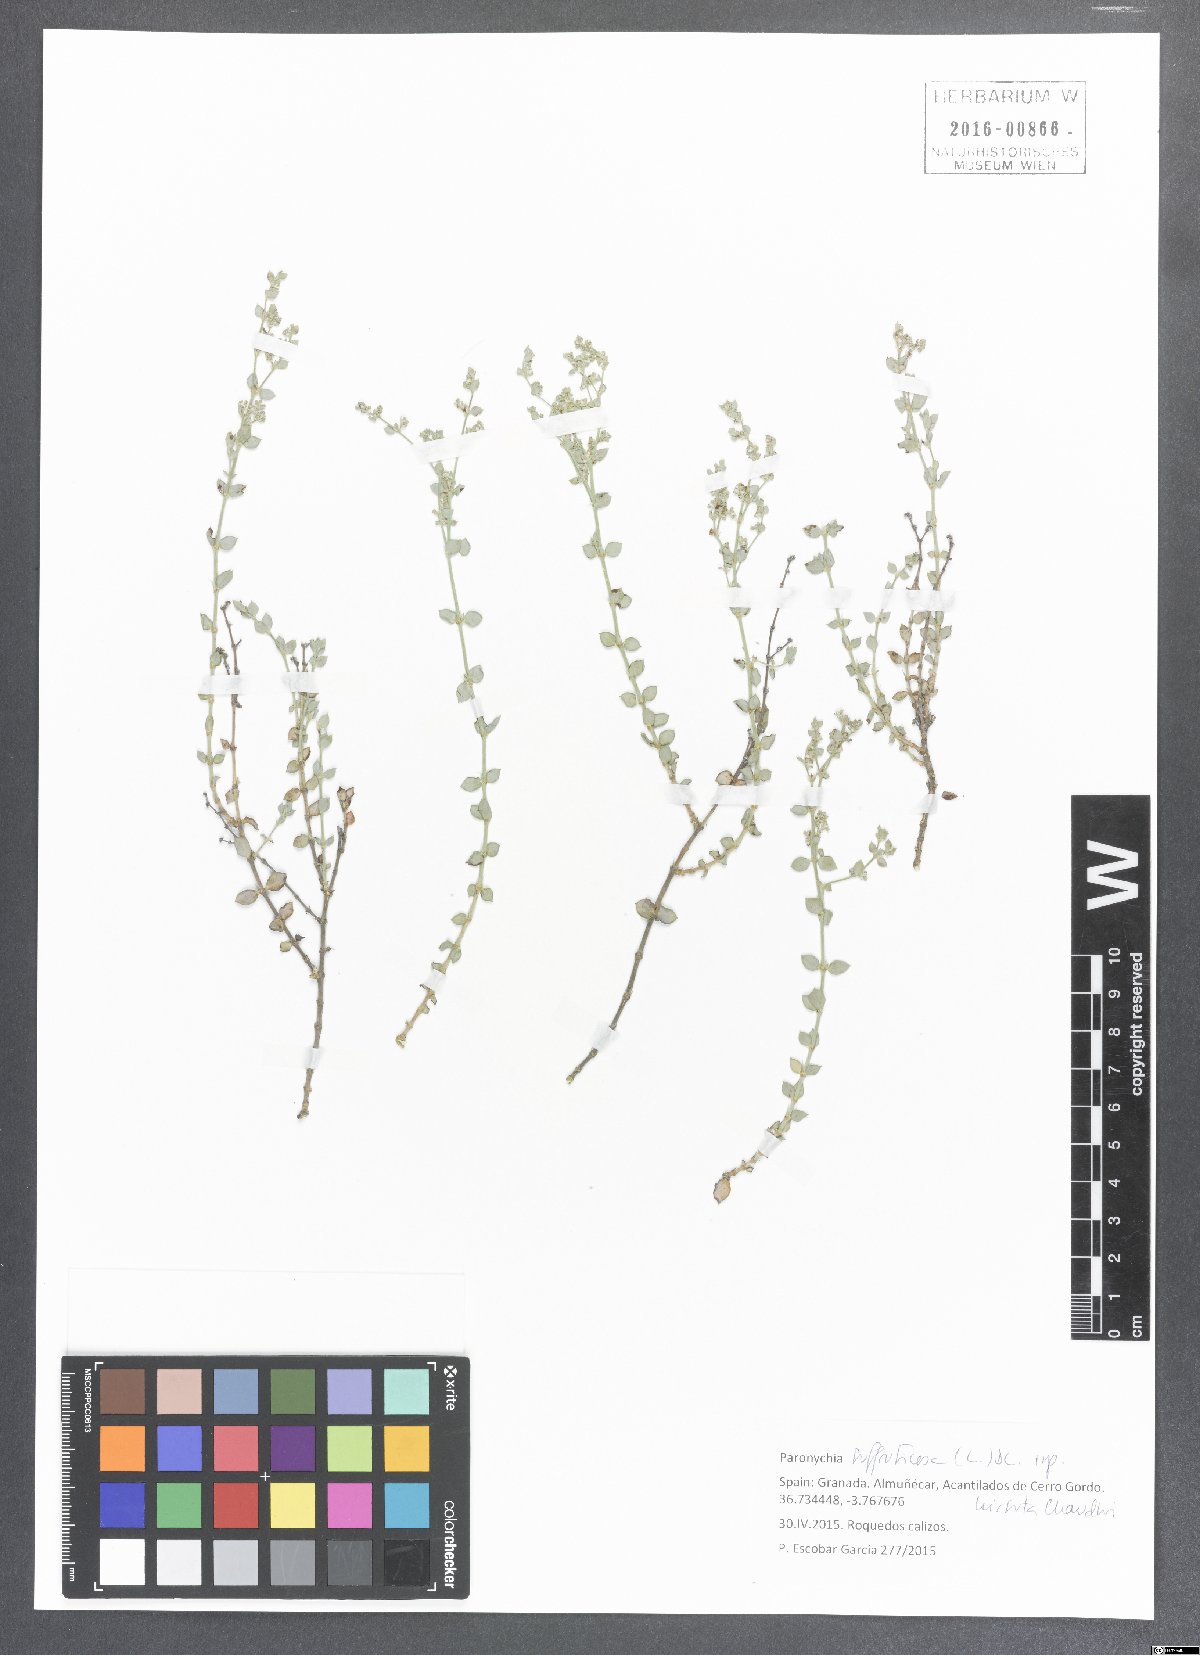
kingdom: Plantae
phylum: Tracheophyta
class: Magnoliopsida
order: Caryophyllales
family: Caryophyllaceae
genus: Paronychia
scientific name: Paronychia suffruticosa
